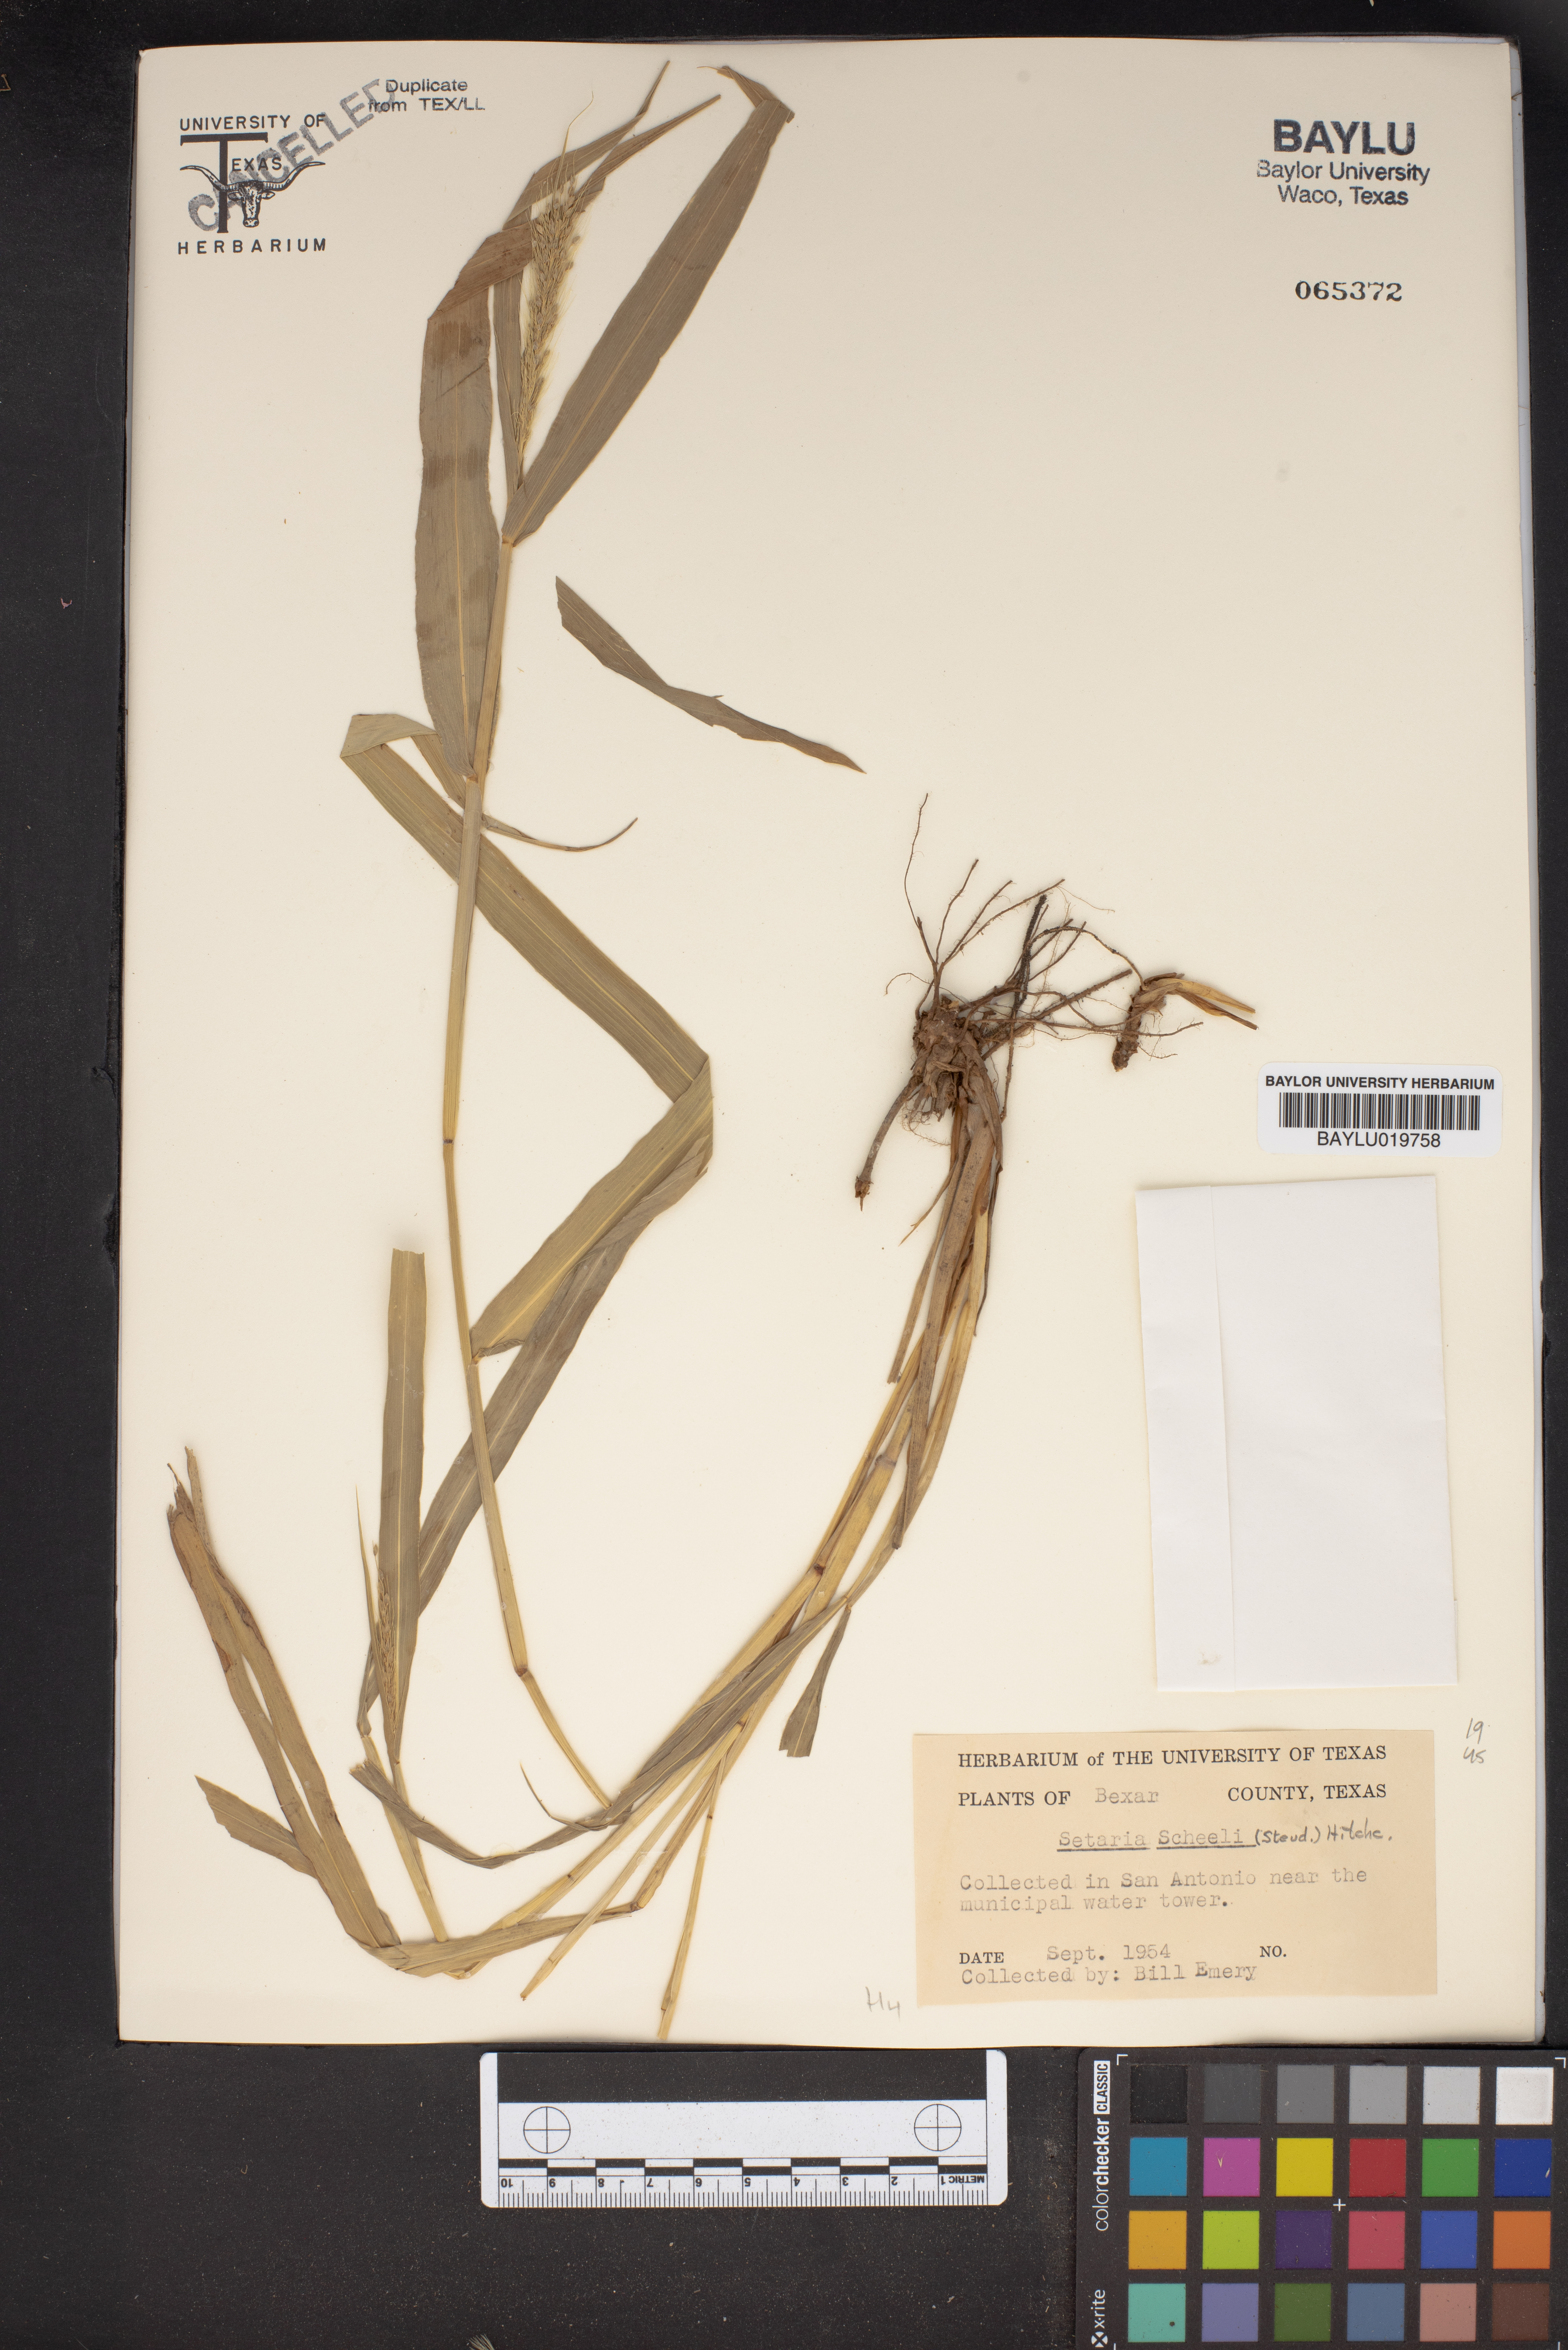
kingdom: Plantae
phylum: Tracheophyta
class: Liliopsida
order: Poales
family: Poaceae
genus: Setaria
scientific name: Setaria scheelei
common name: Southwestern bristle grass
